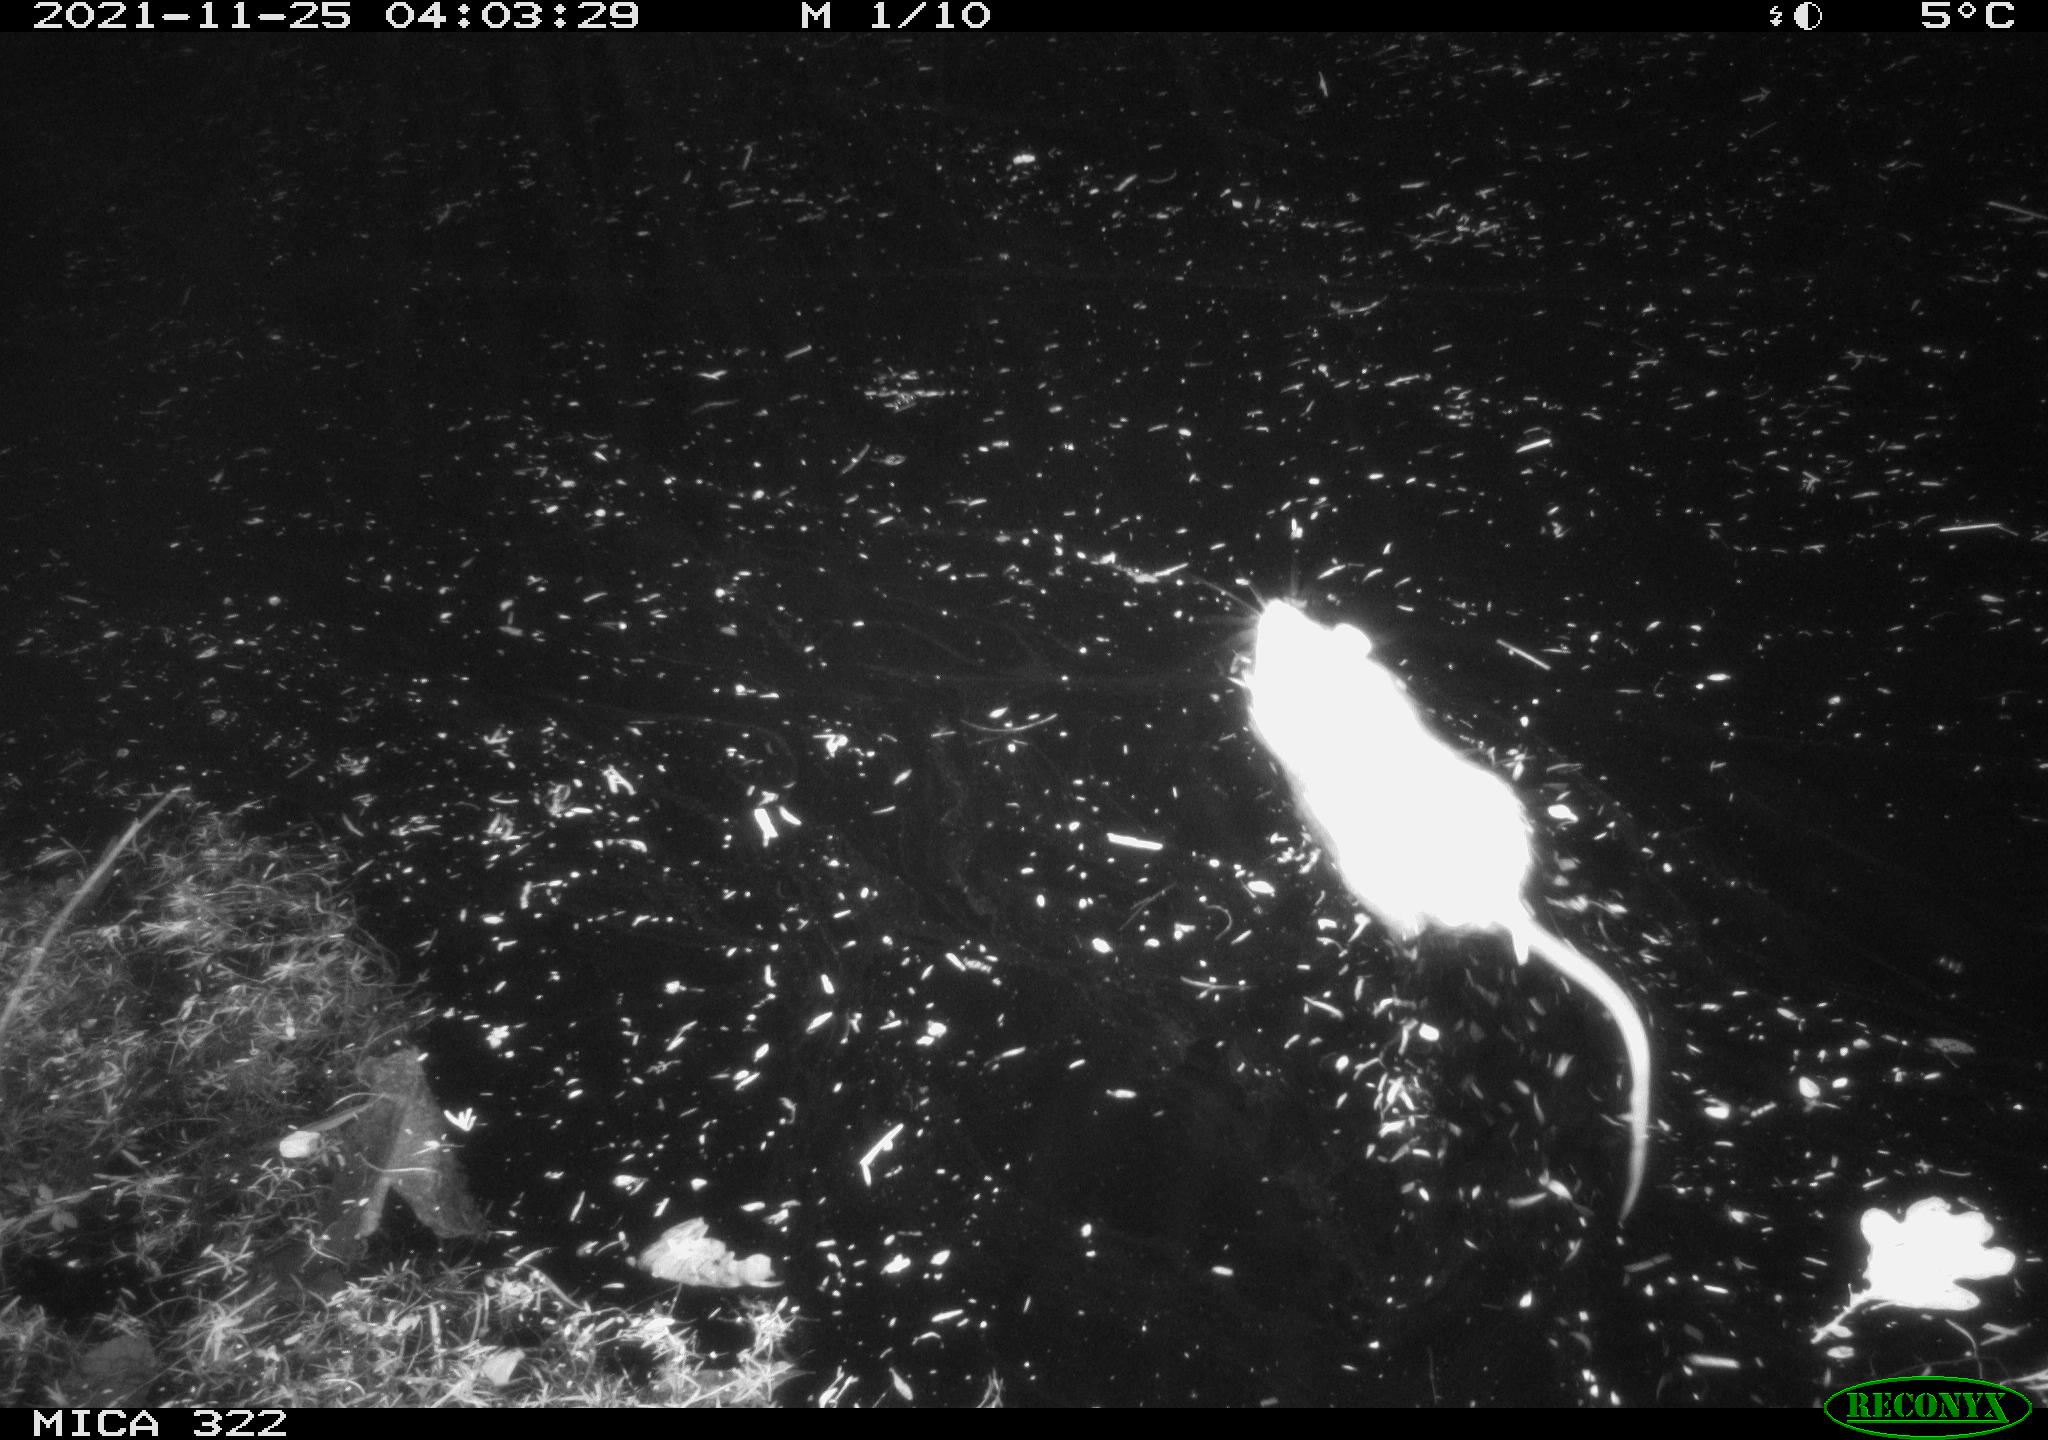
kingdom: Animalia
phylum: Chordata
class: Mammalia
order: Rodentia
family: Muridae
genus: Rattus
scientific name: Rattus norvegicus
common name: Brown rat
